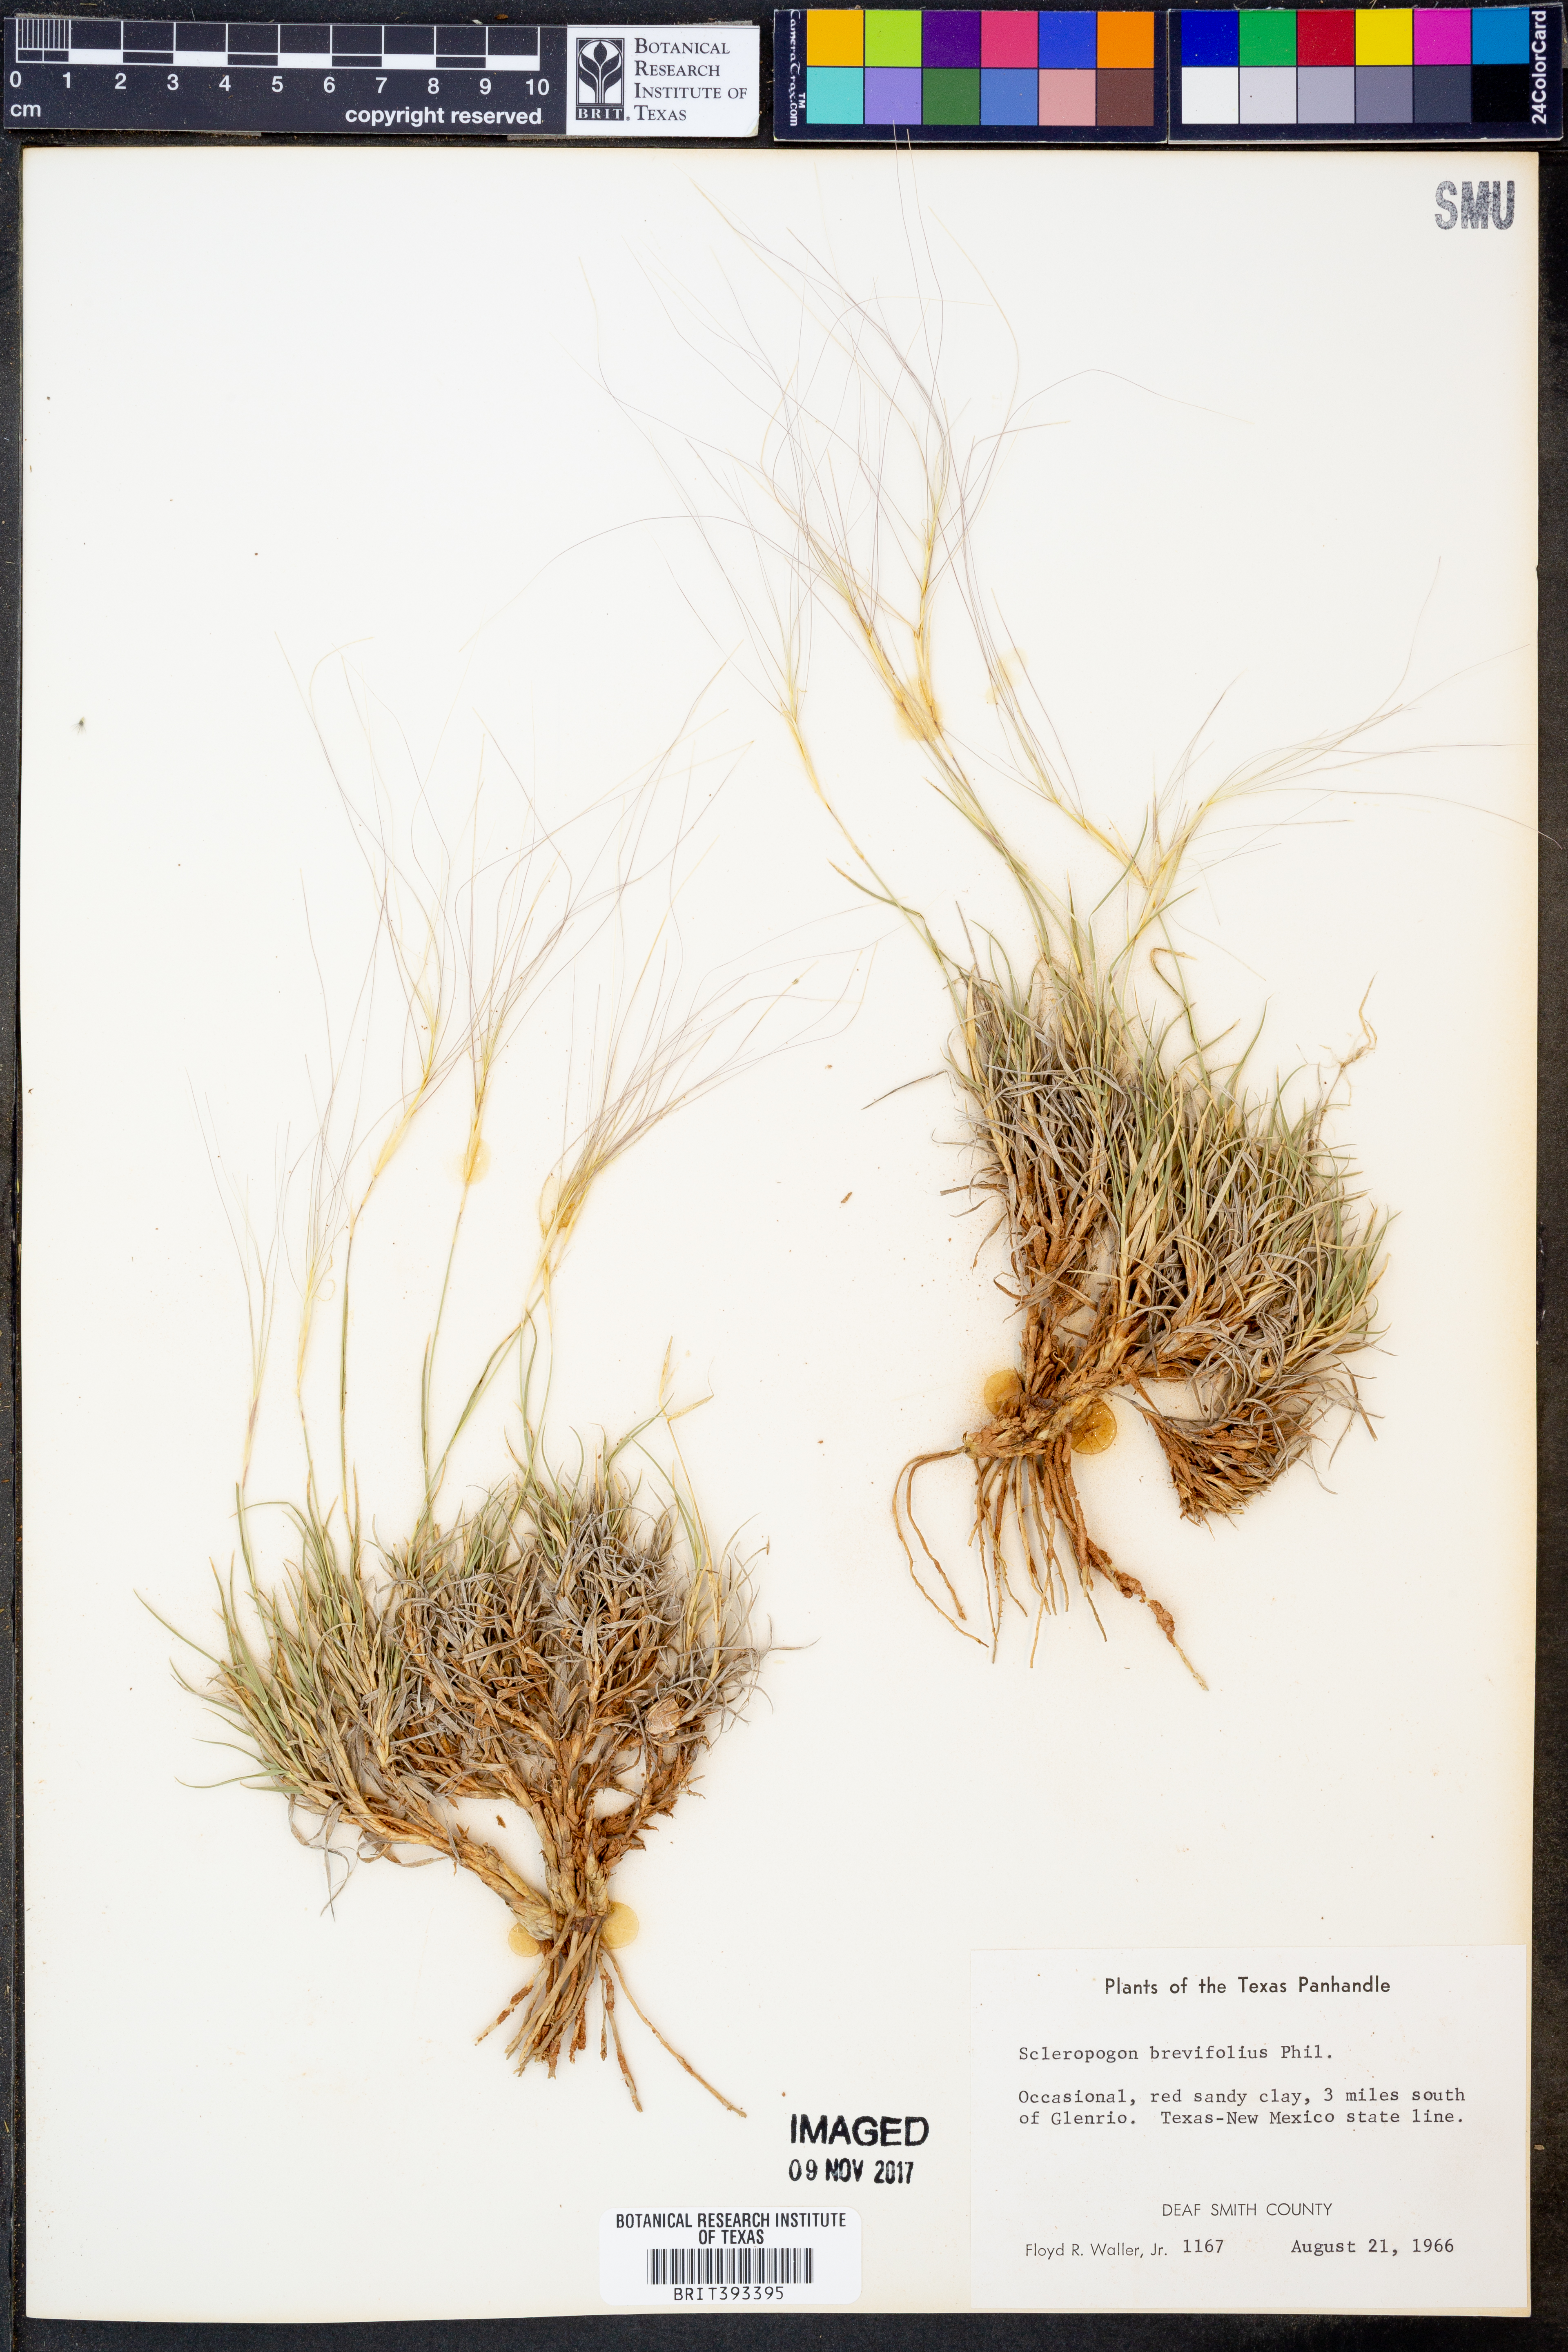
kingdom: Plantae
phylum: Tracheophyta
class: Liliopsida
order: Poales
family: Poaceae
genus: Scleropogon
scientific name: Scleropogon brevifolius
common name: Burro grass
